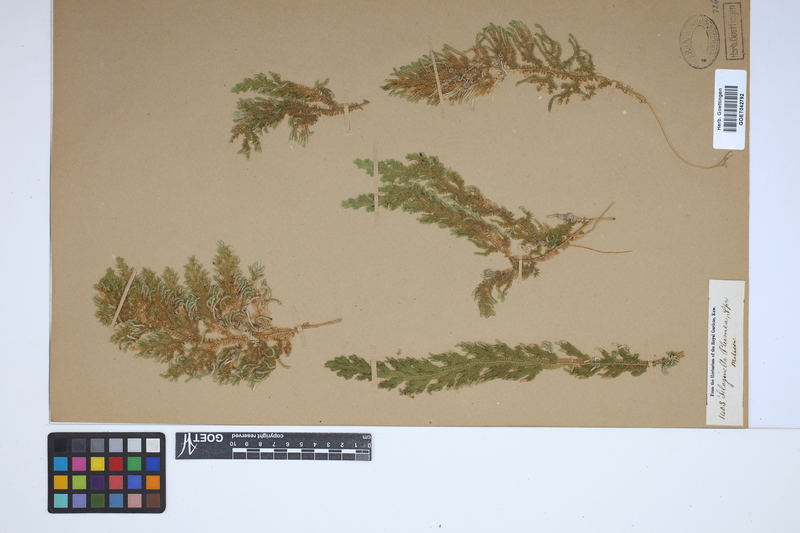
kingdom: Plantae
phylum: Tracheophyta
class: Lycopodiopsida
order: Selaginellales
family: Selaginellaceae
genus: Selaginella
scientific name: Selaginella roxburghii
